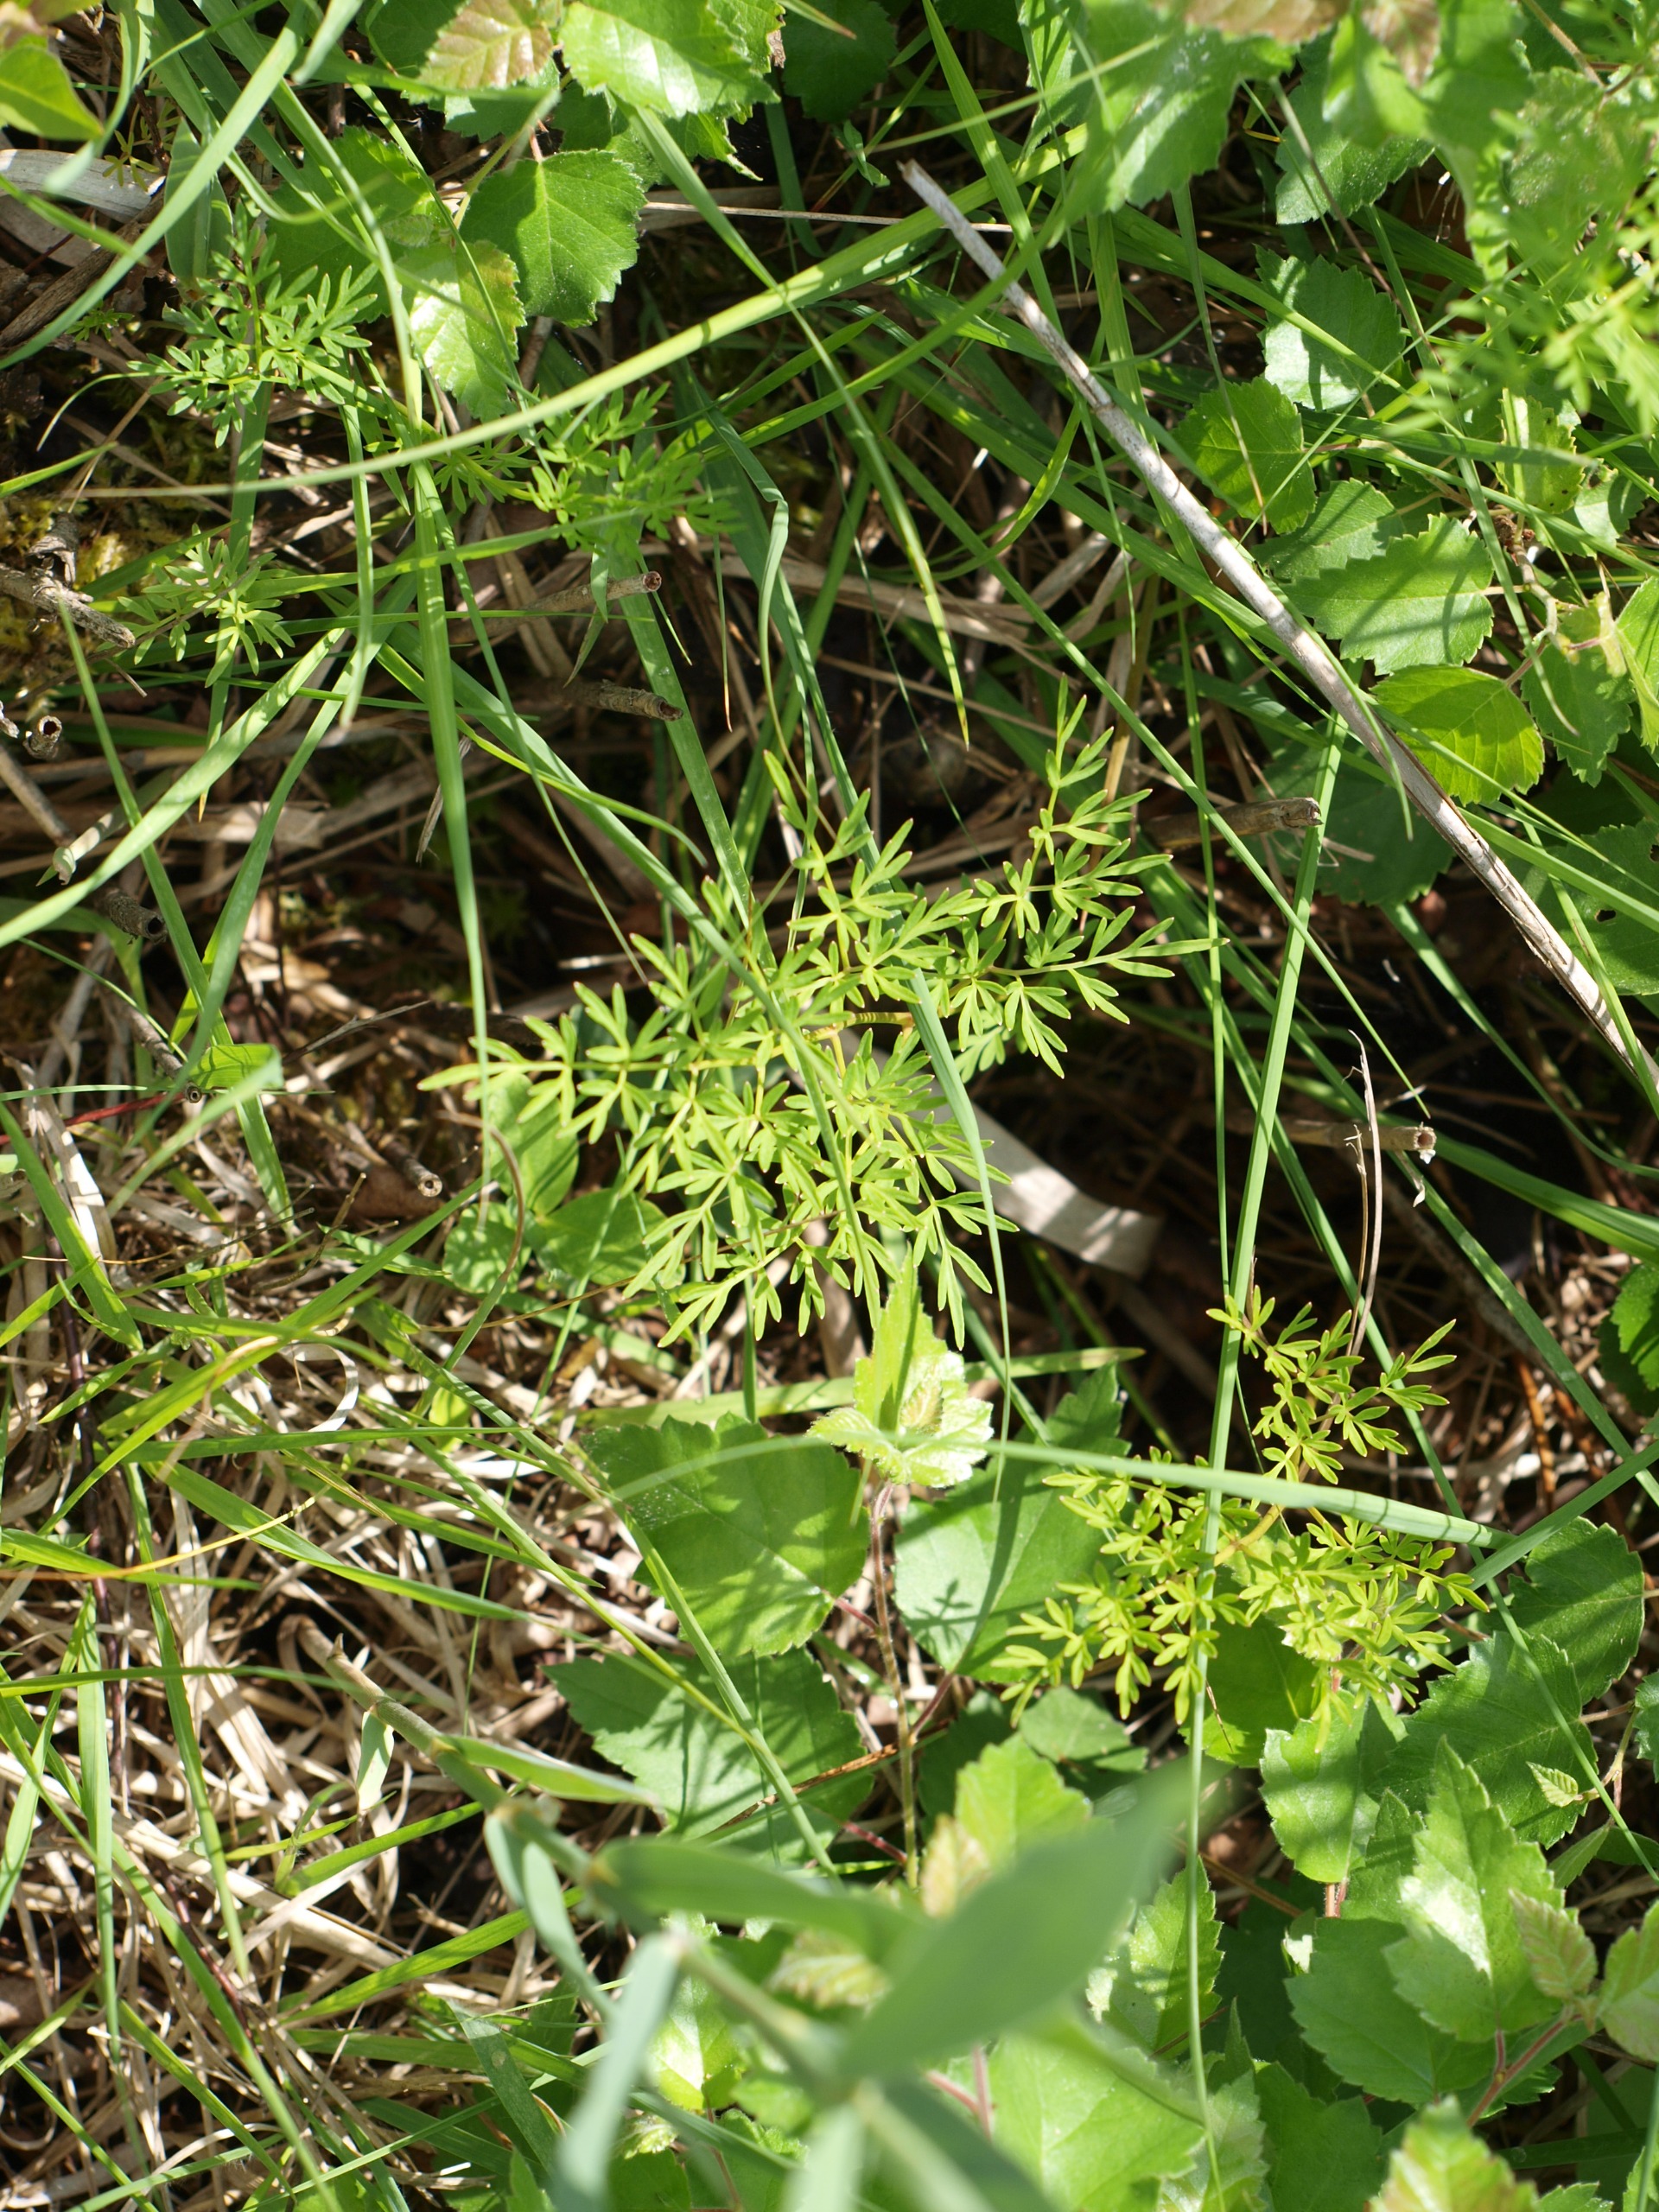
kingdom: Plantae
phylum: Tracheophyta
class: Magnoliopsida
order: Apiales
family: Apiaceae
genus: Thysselinum
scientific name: Thysselinum palustre
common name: Kær-svovlrod
